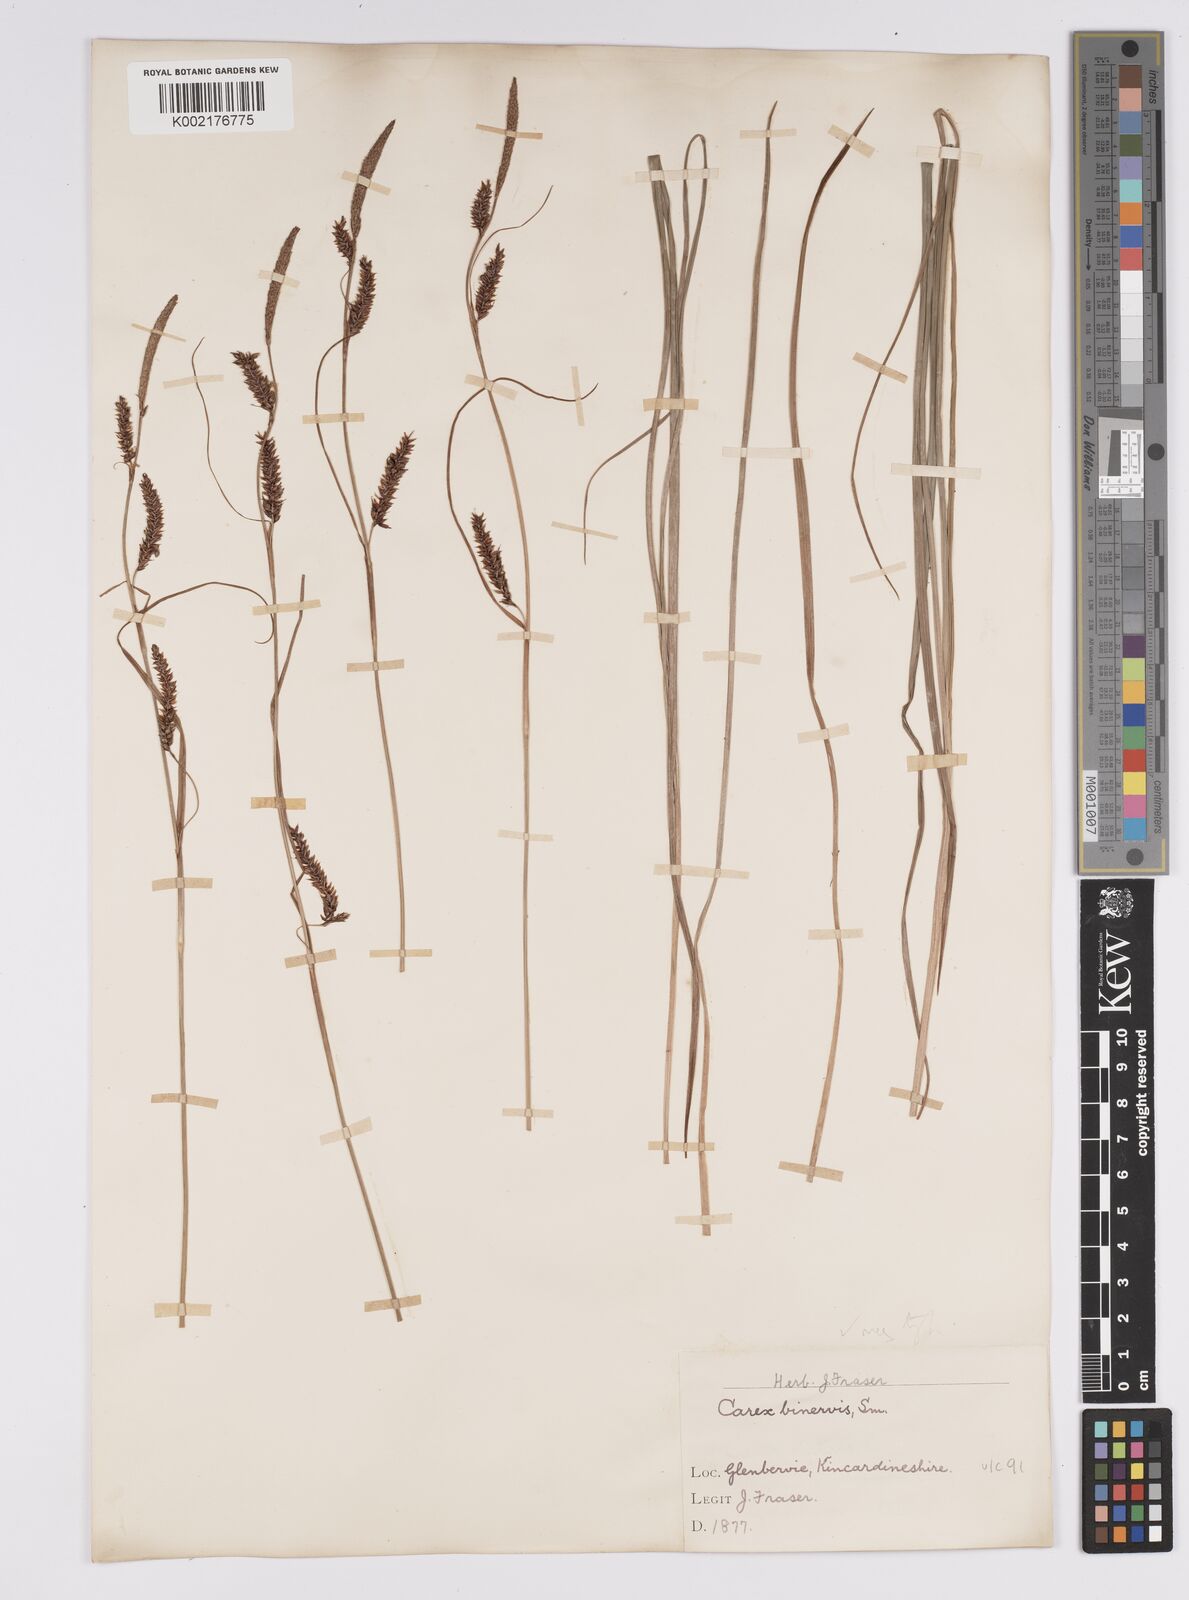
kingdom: Plantae
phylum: Tracheophyta
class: Liliopsida
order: Poales
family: Cyperaceae
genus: Carex
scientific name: Carex binervis
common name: Green-ribbed sedge
